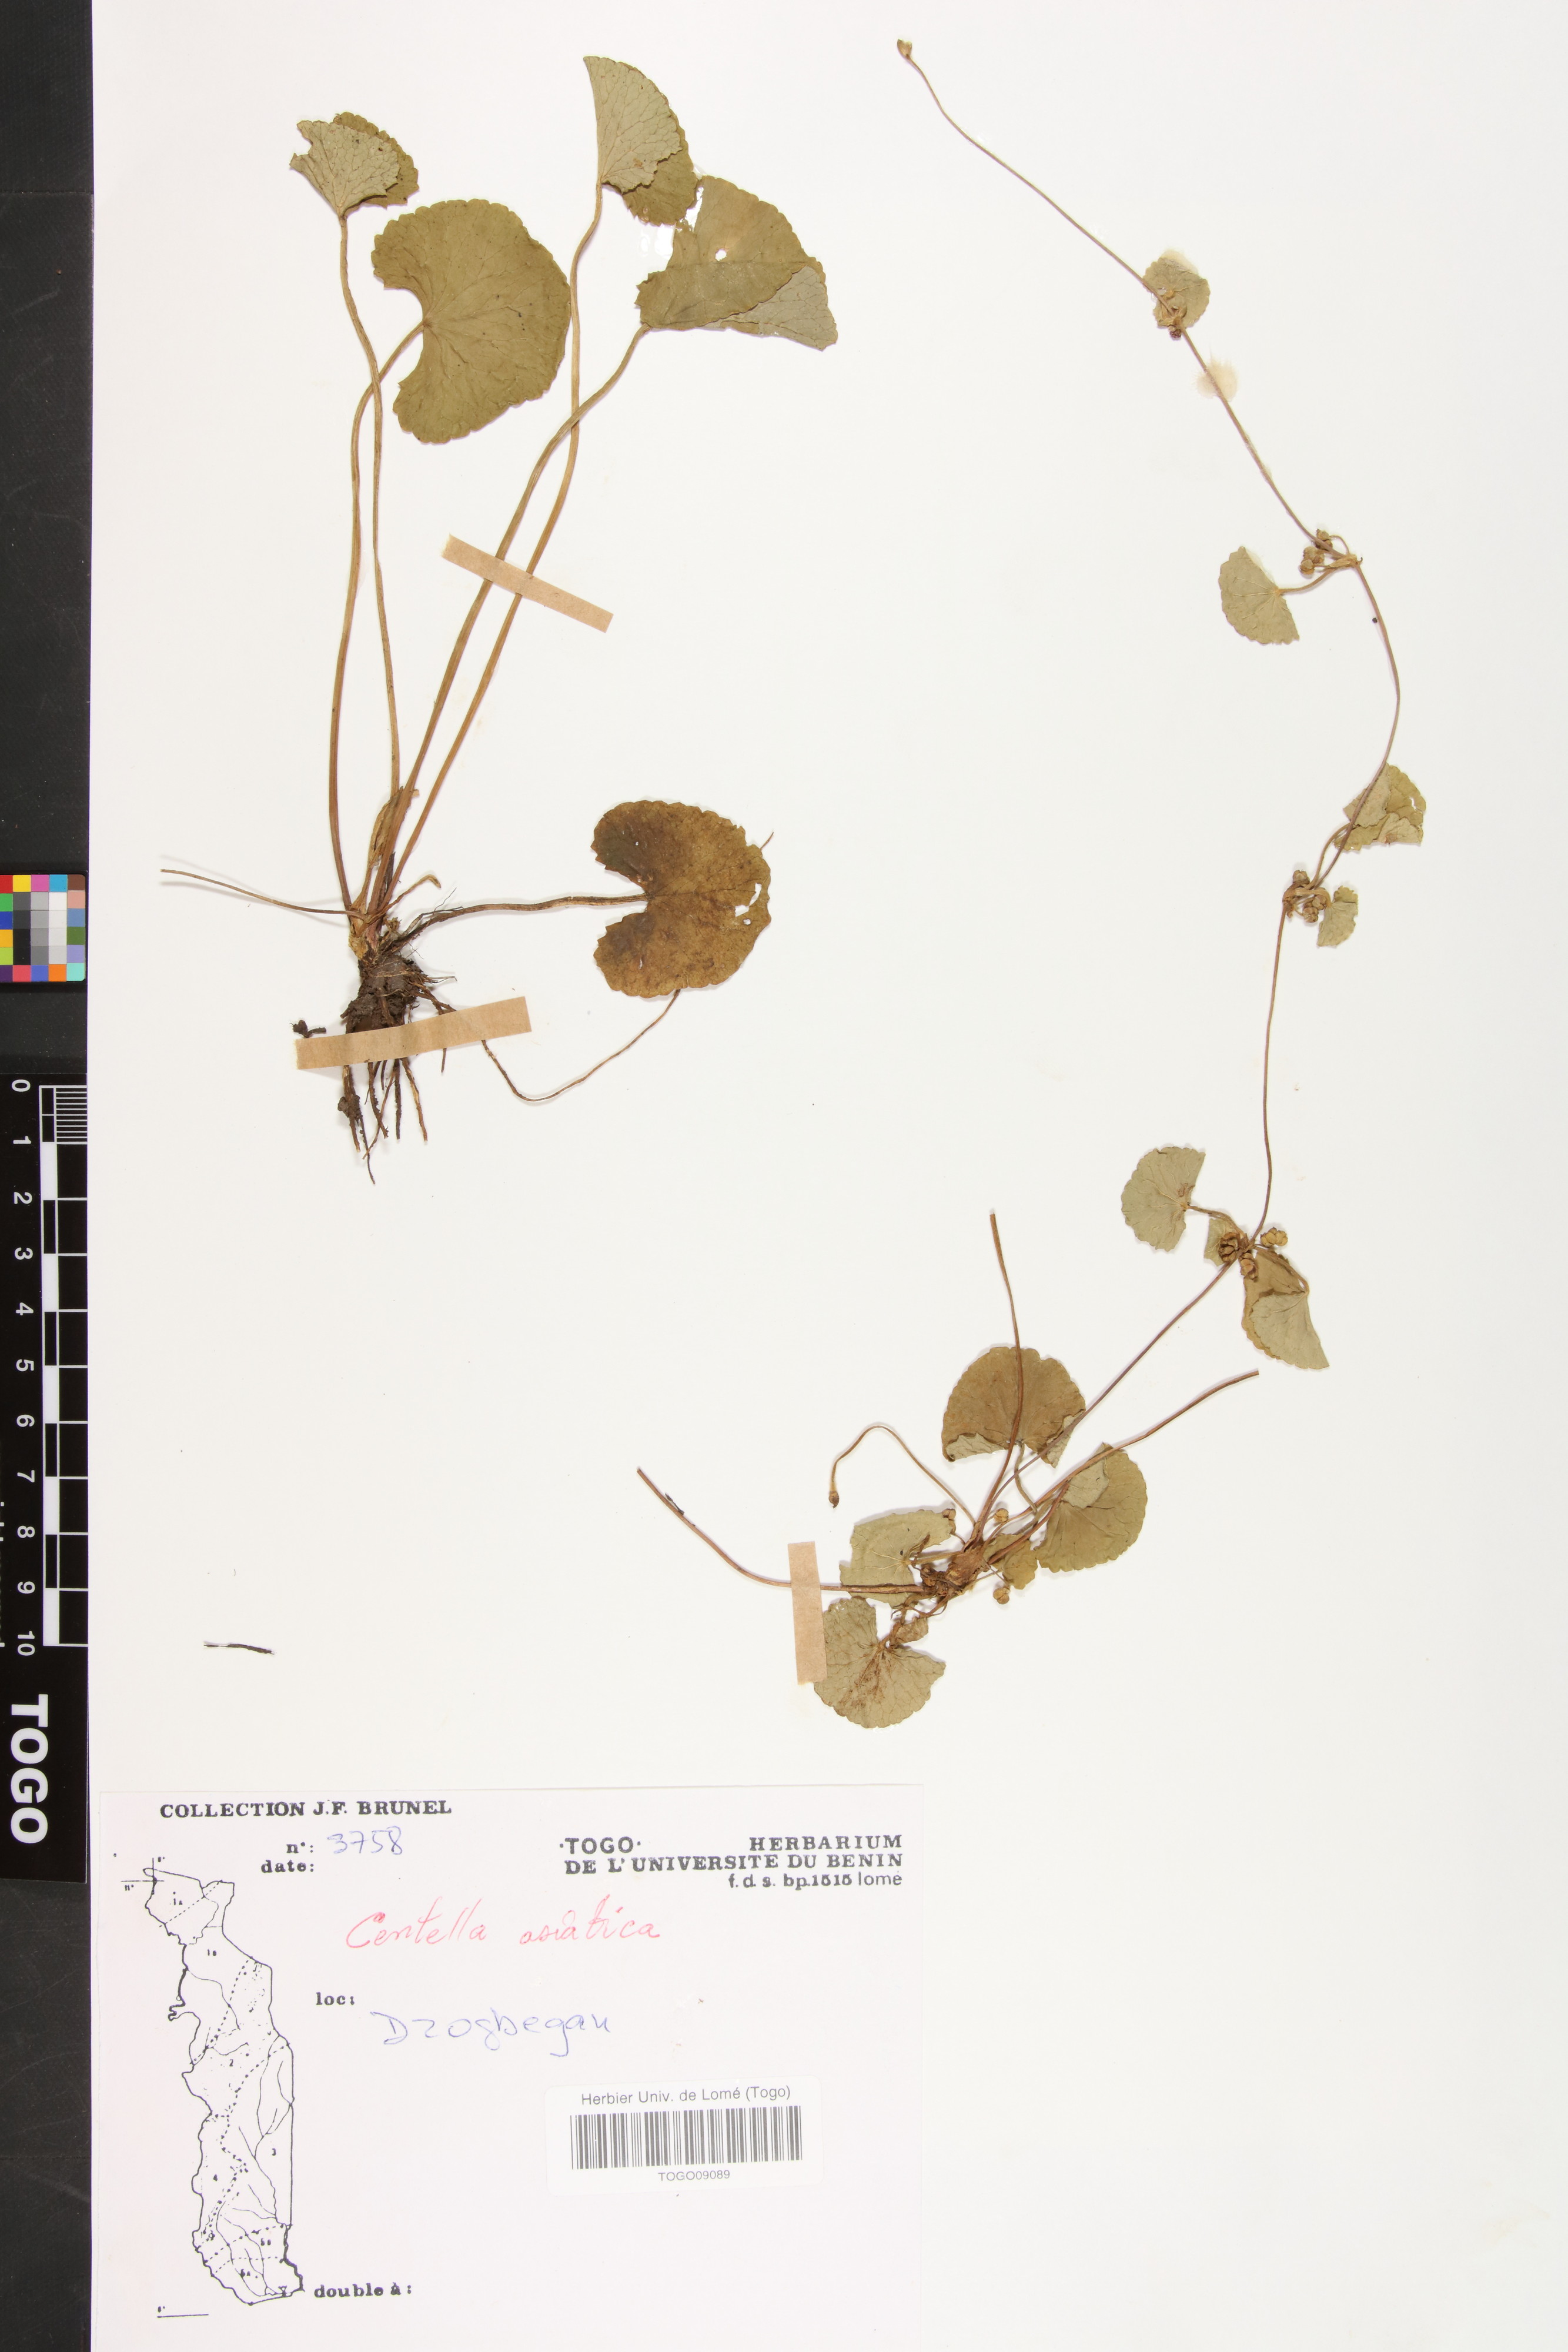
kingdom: Plantae
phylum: Tracheophyta
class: Magnoliopsida
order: Apiales
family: Apiaceae
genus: Centella
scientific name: Centella asiatica
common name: Spadeleaf
